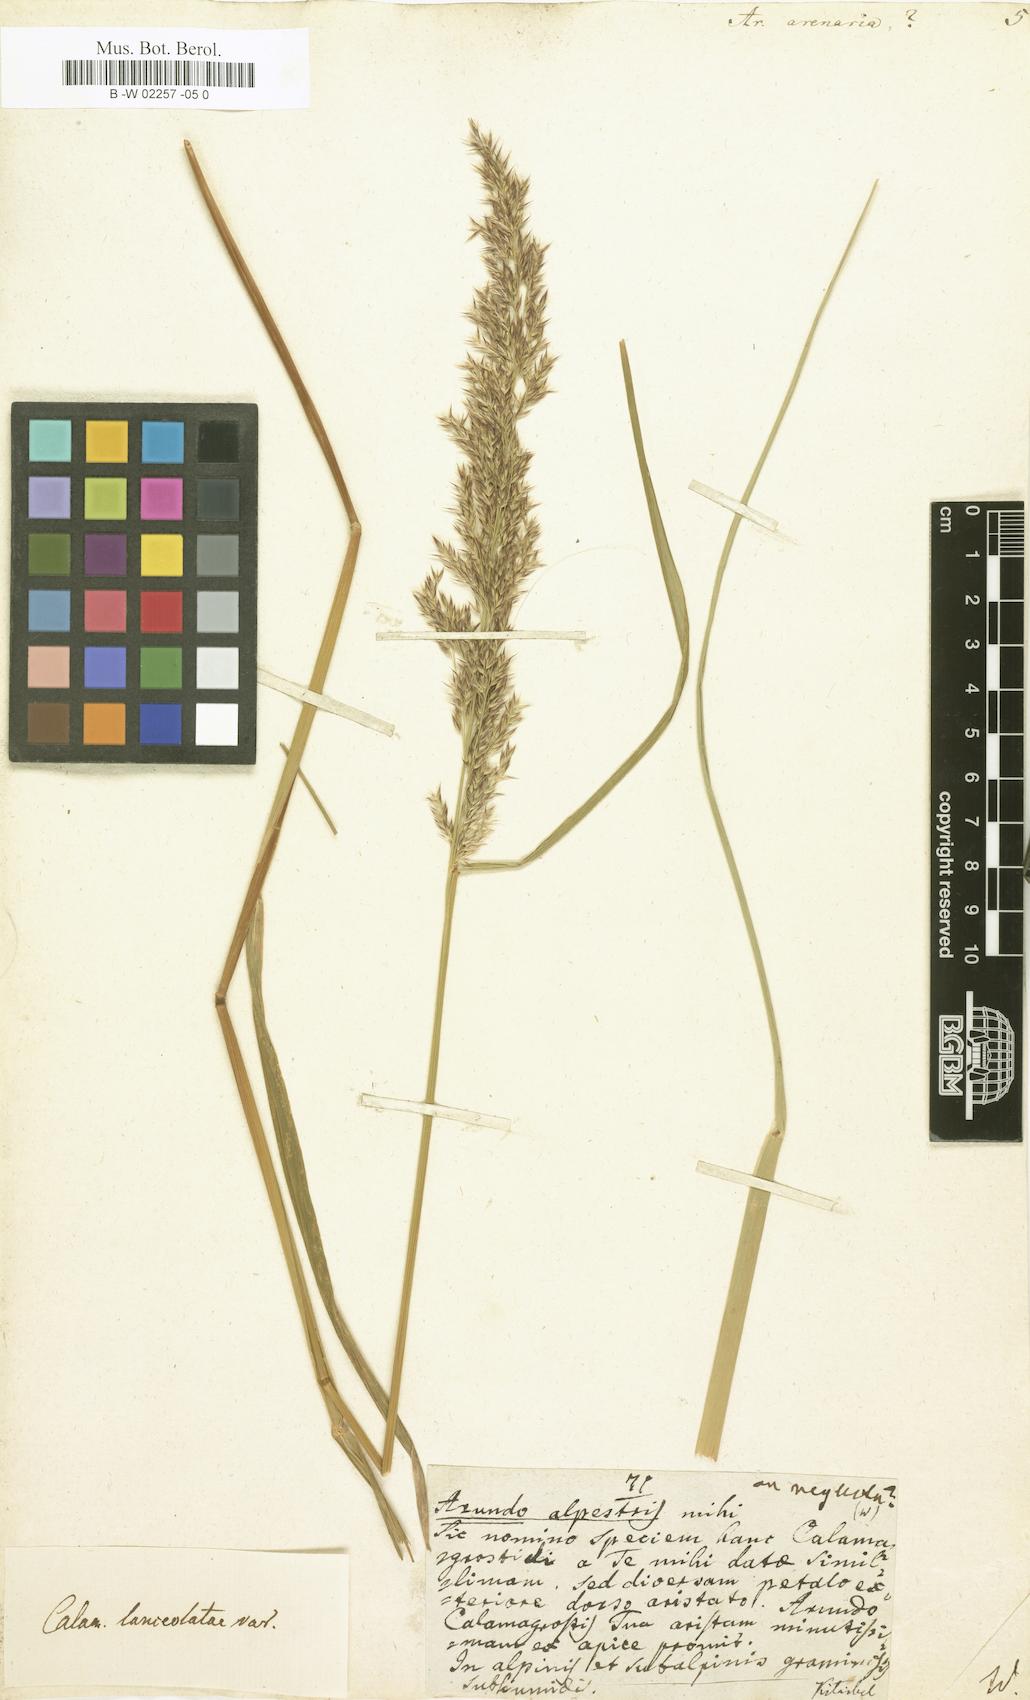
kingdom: Plantae
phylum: Tracheophyta
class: Liliopsida
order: Poales
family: Poaceae
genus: Arundo
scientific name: Arundo arenaria
